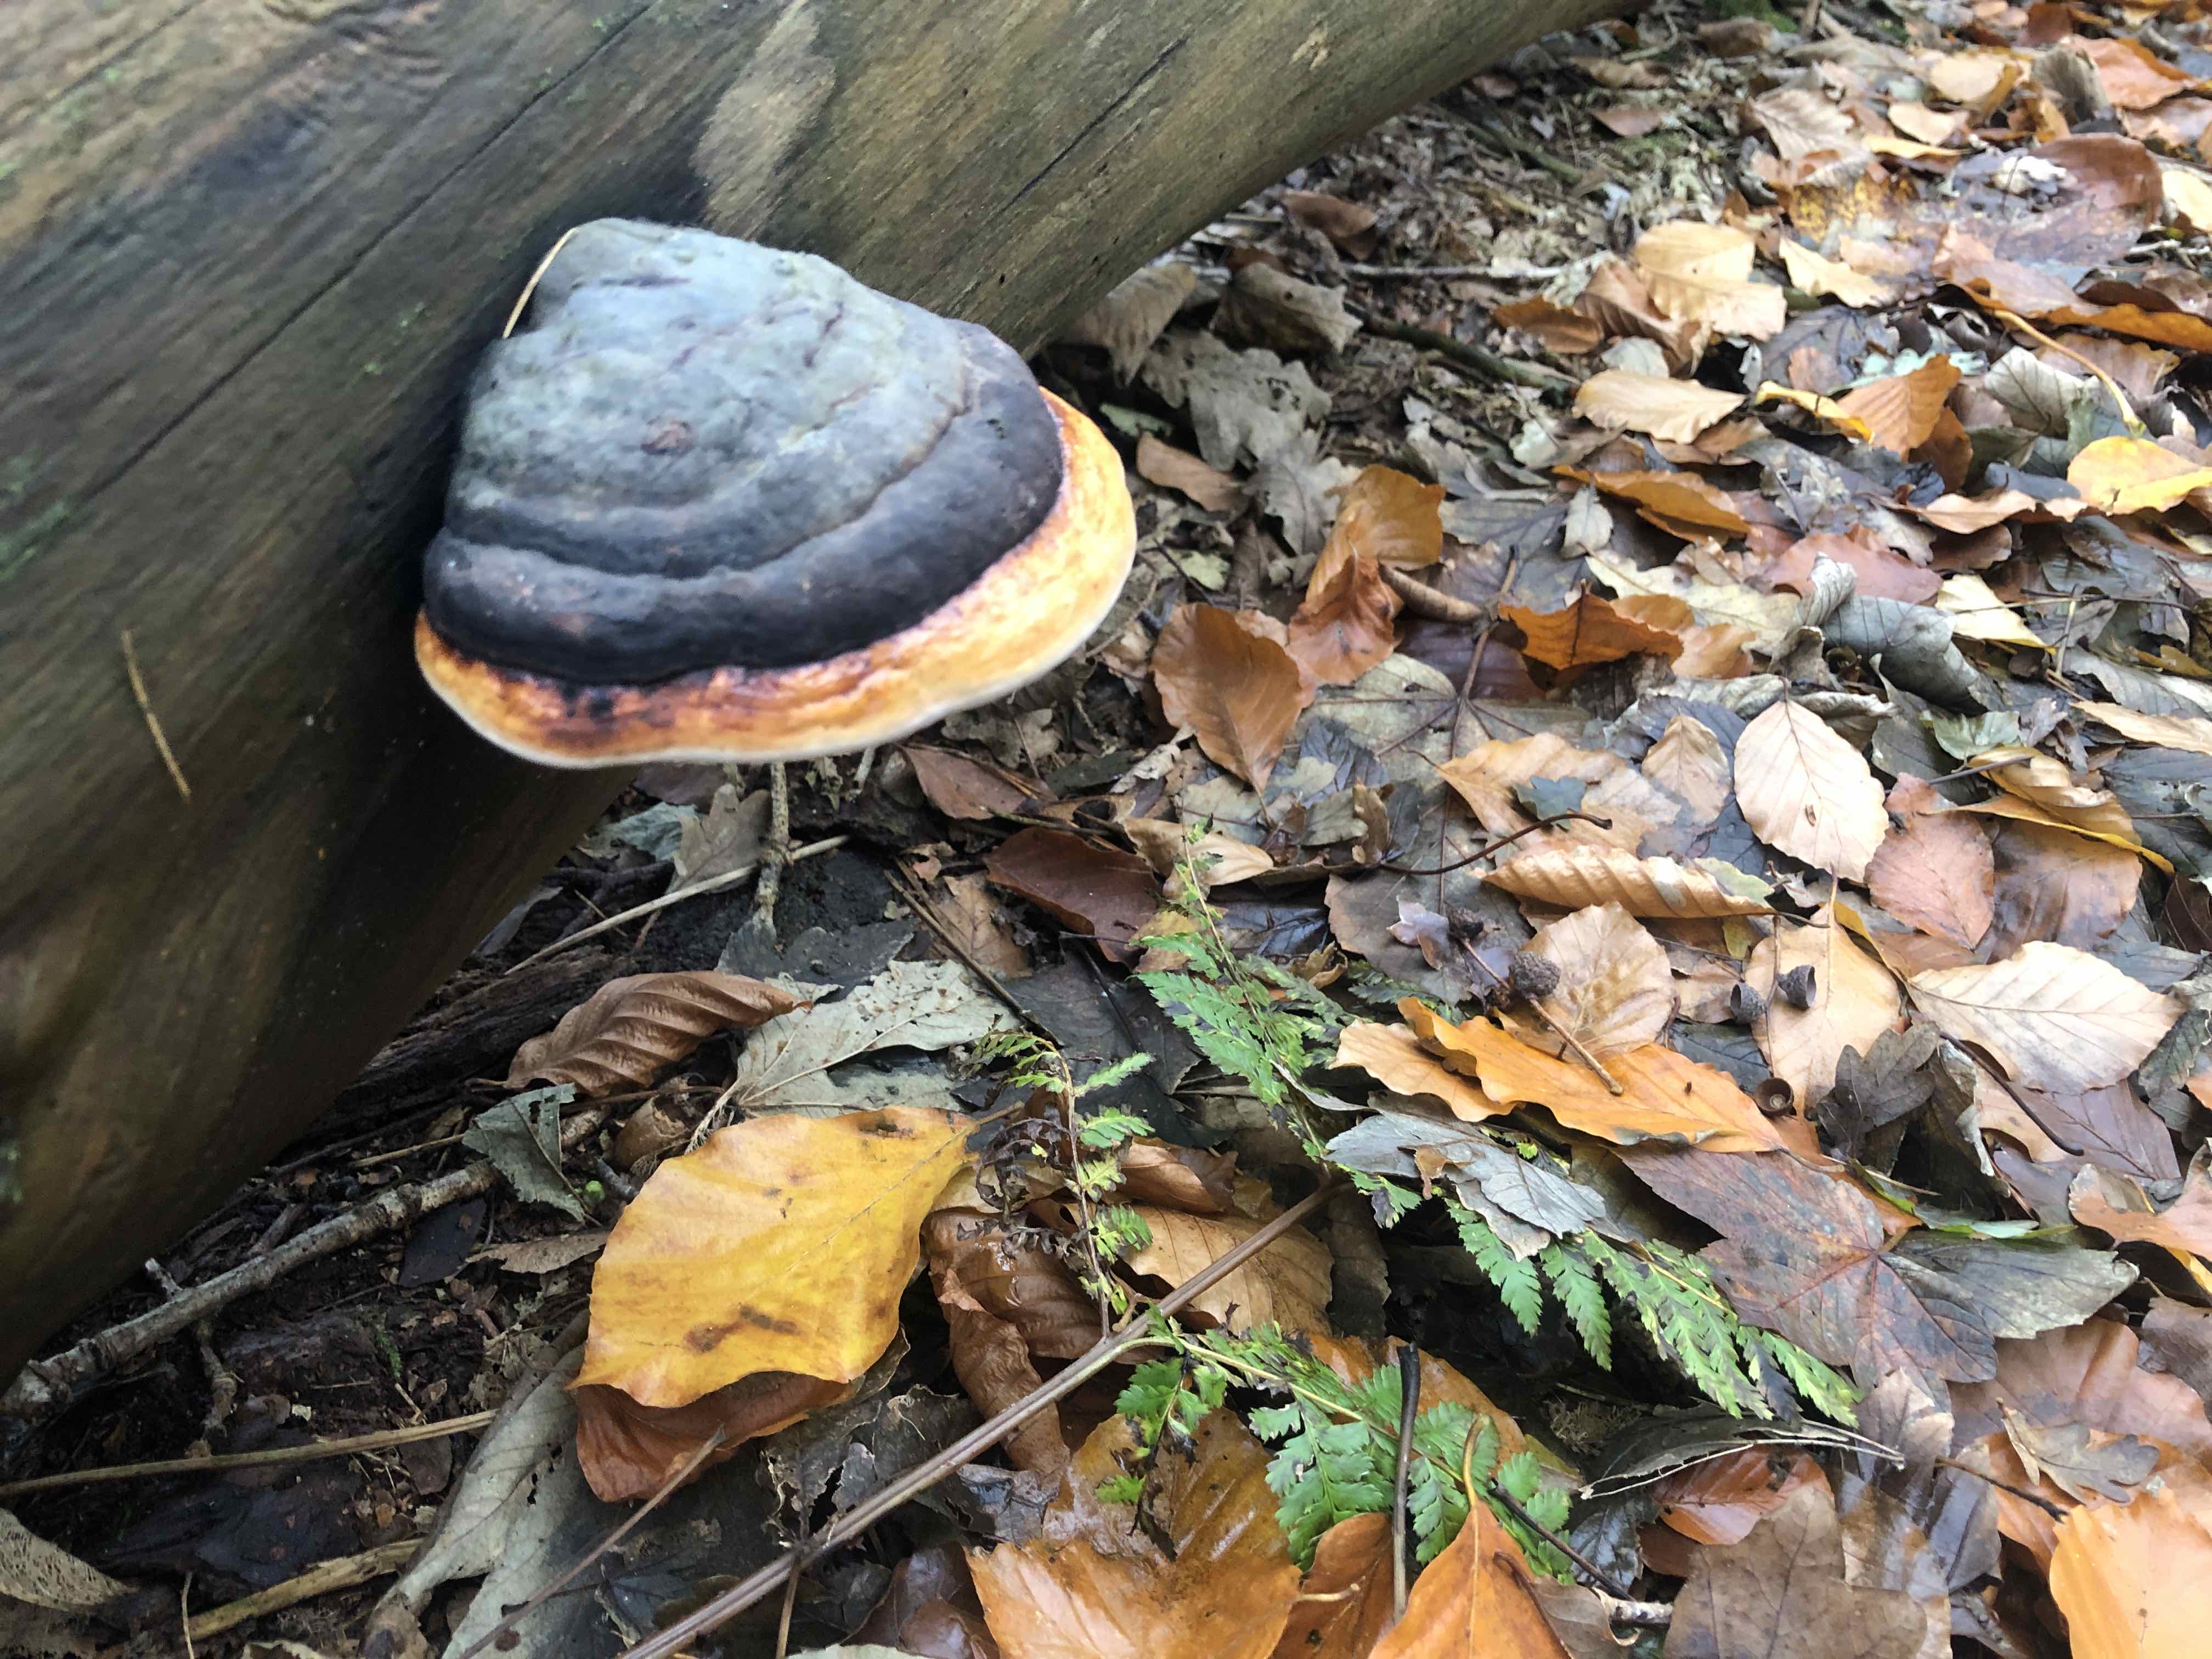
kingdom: Fungi
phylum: Basidiomycota
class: Agaricomycetes
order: Polyporales
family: Fomitopsidaceae
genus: Fomitopsis
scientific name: Fomitopsis pinicola
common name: randbæltet hovporesvamp
